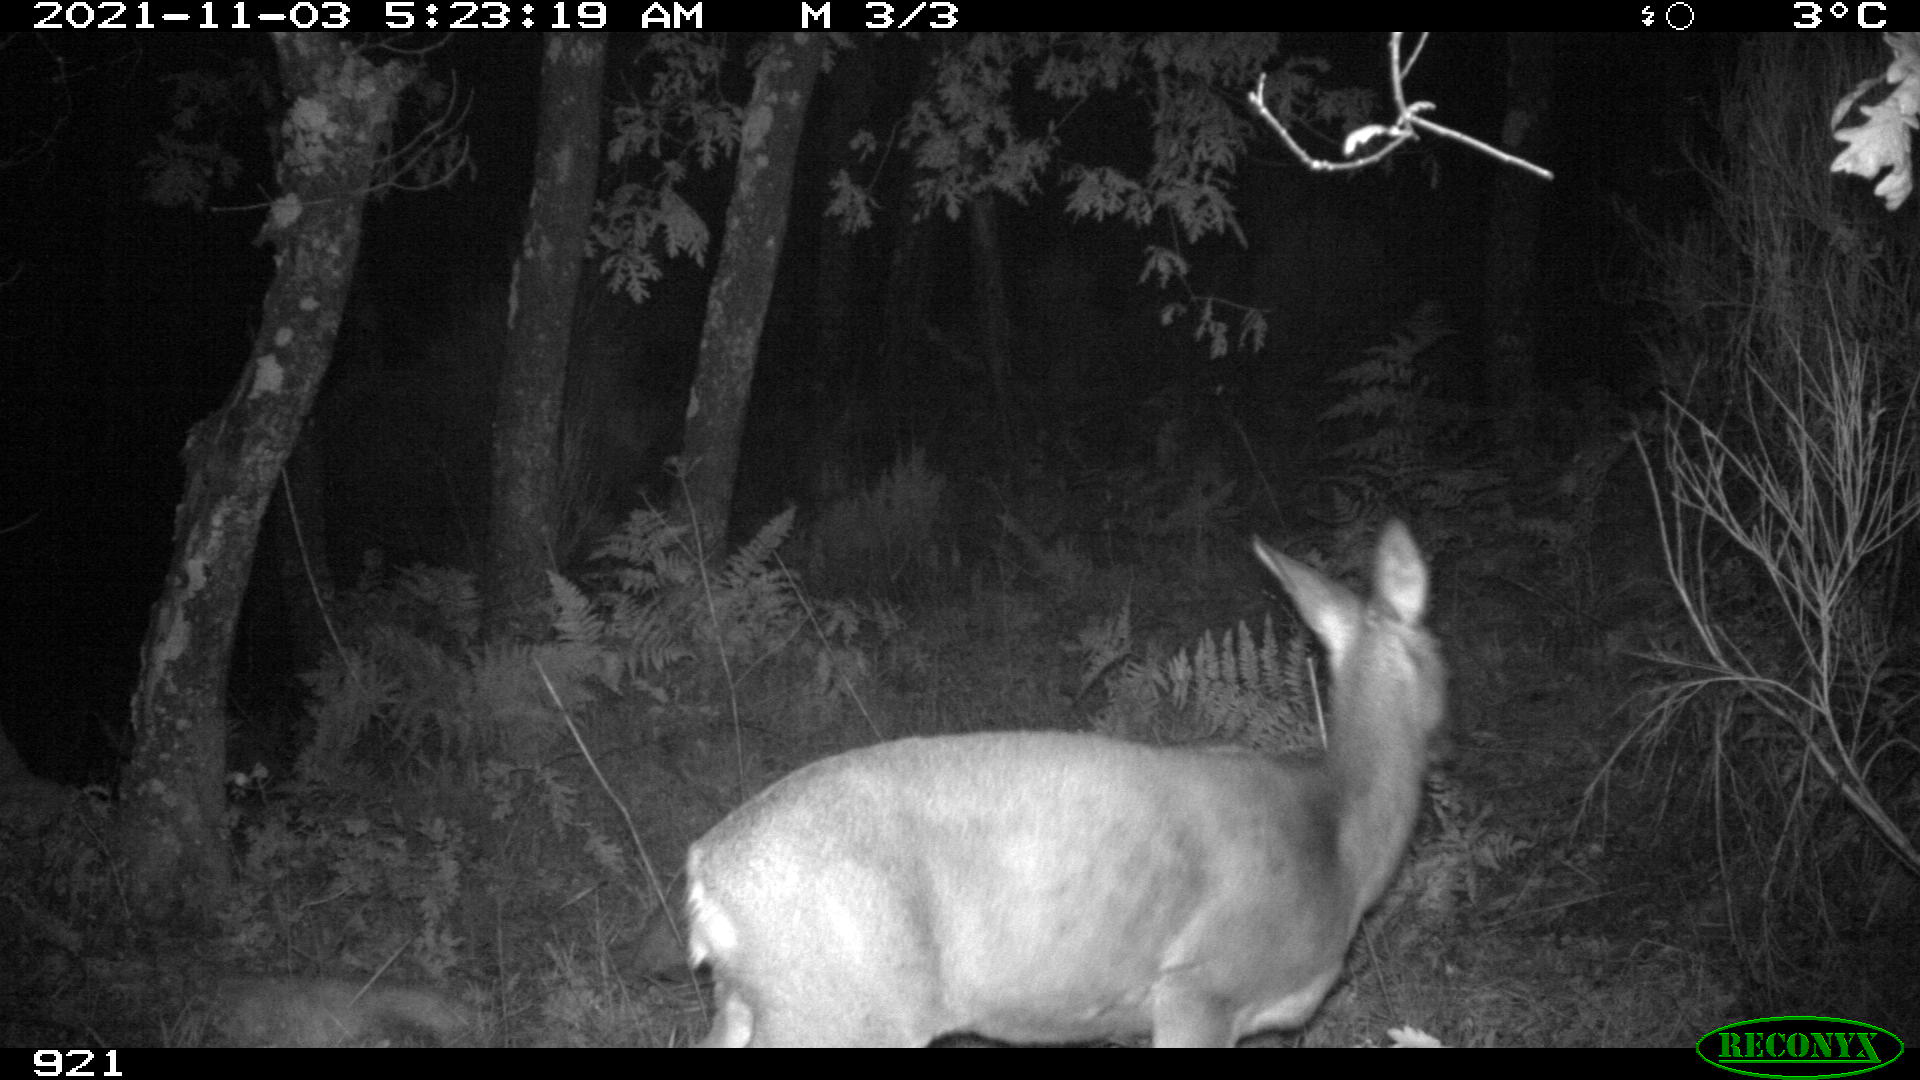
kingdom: Animalia
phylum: Chordata
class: Mammalia
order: Artiodactyla
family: Cervidae
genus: Capreolus
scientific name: Capreolus capreolus
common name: Western roe deer
